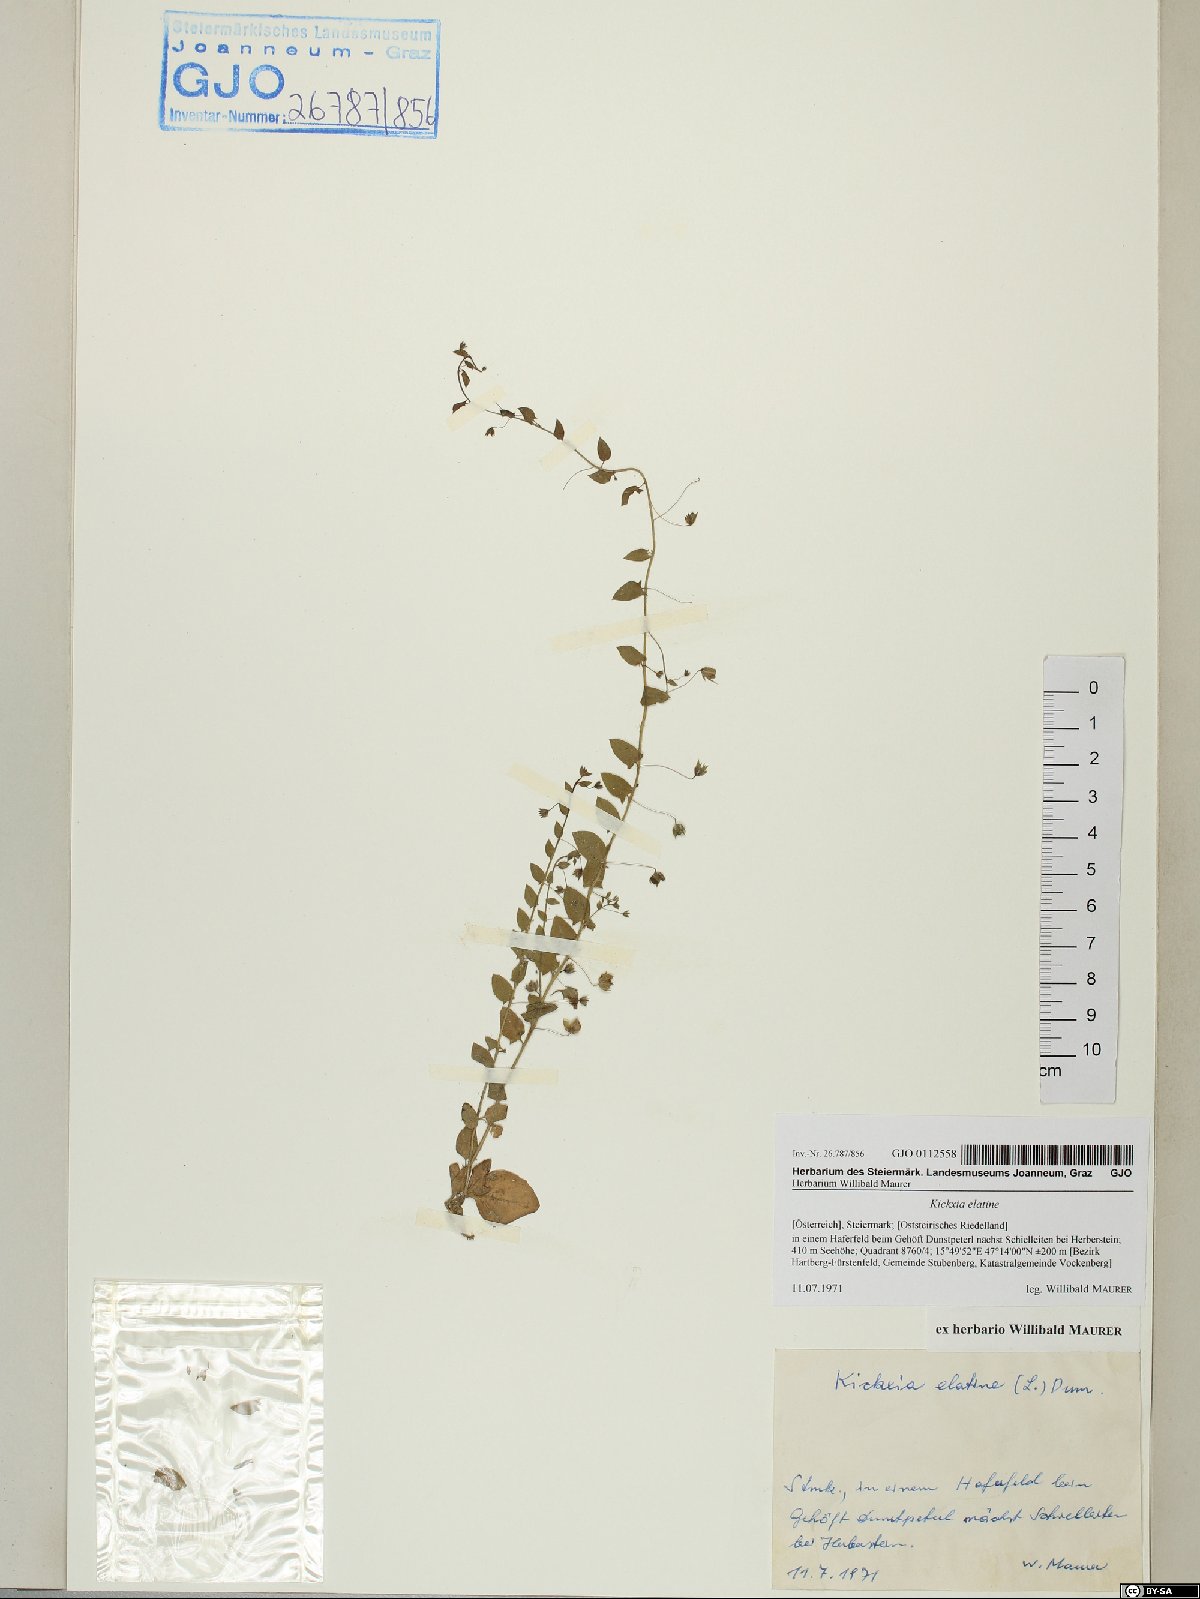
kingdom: Plantae
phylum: Tracheophyta
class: Magnoliopsida
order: Lamiales
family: Plantaginaceae
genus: Kickxia
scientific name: Kickxia elatine
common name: Sharp-leaved fluellen
